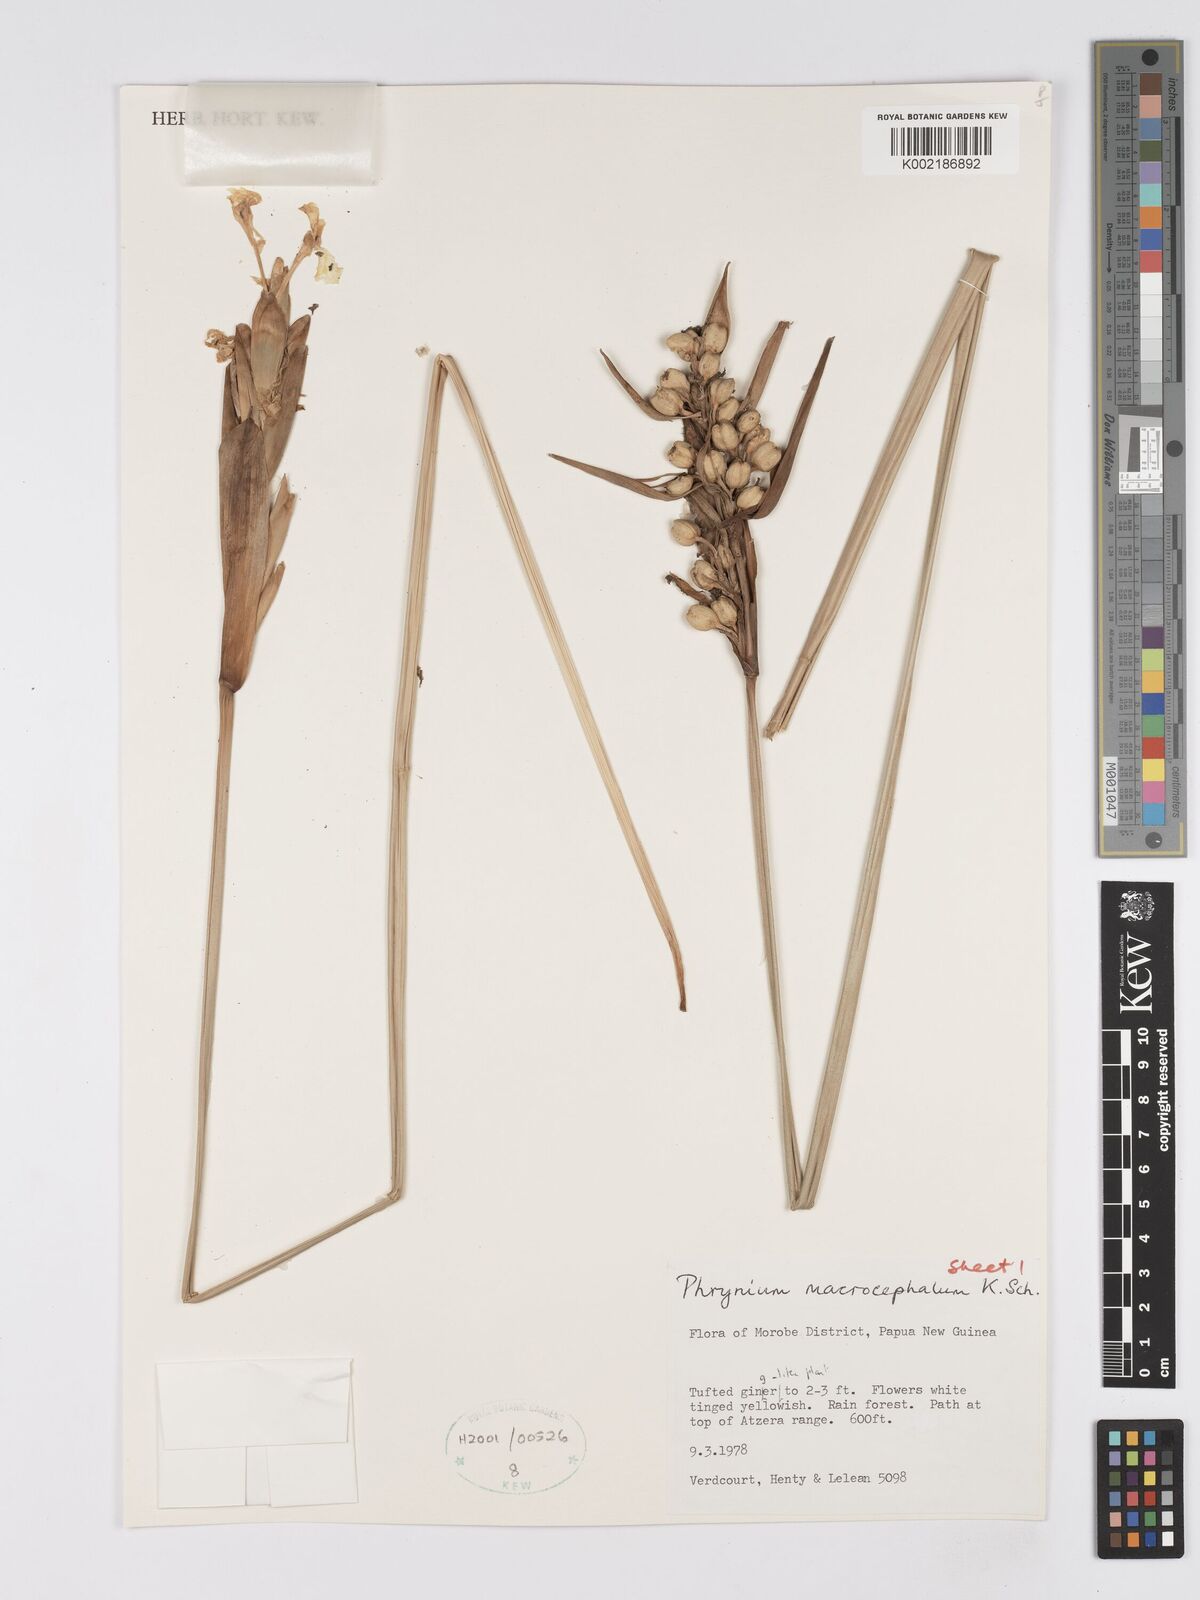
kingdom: Plantae
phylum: Tracheophyta
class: Liliopsida
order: Zingiberales
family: Marantaceae
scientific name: Marantaceae
